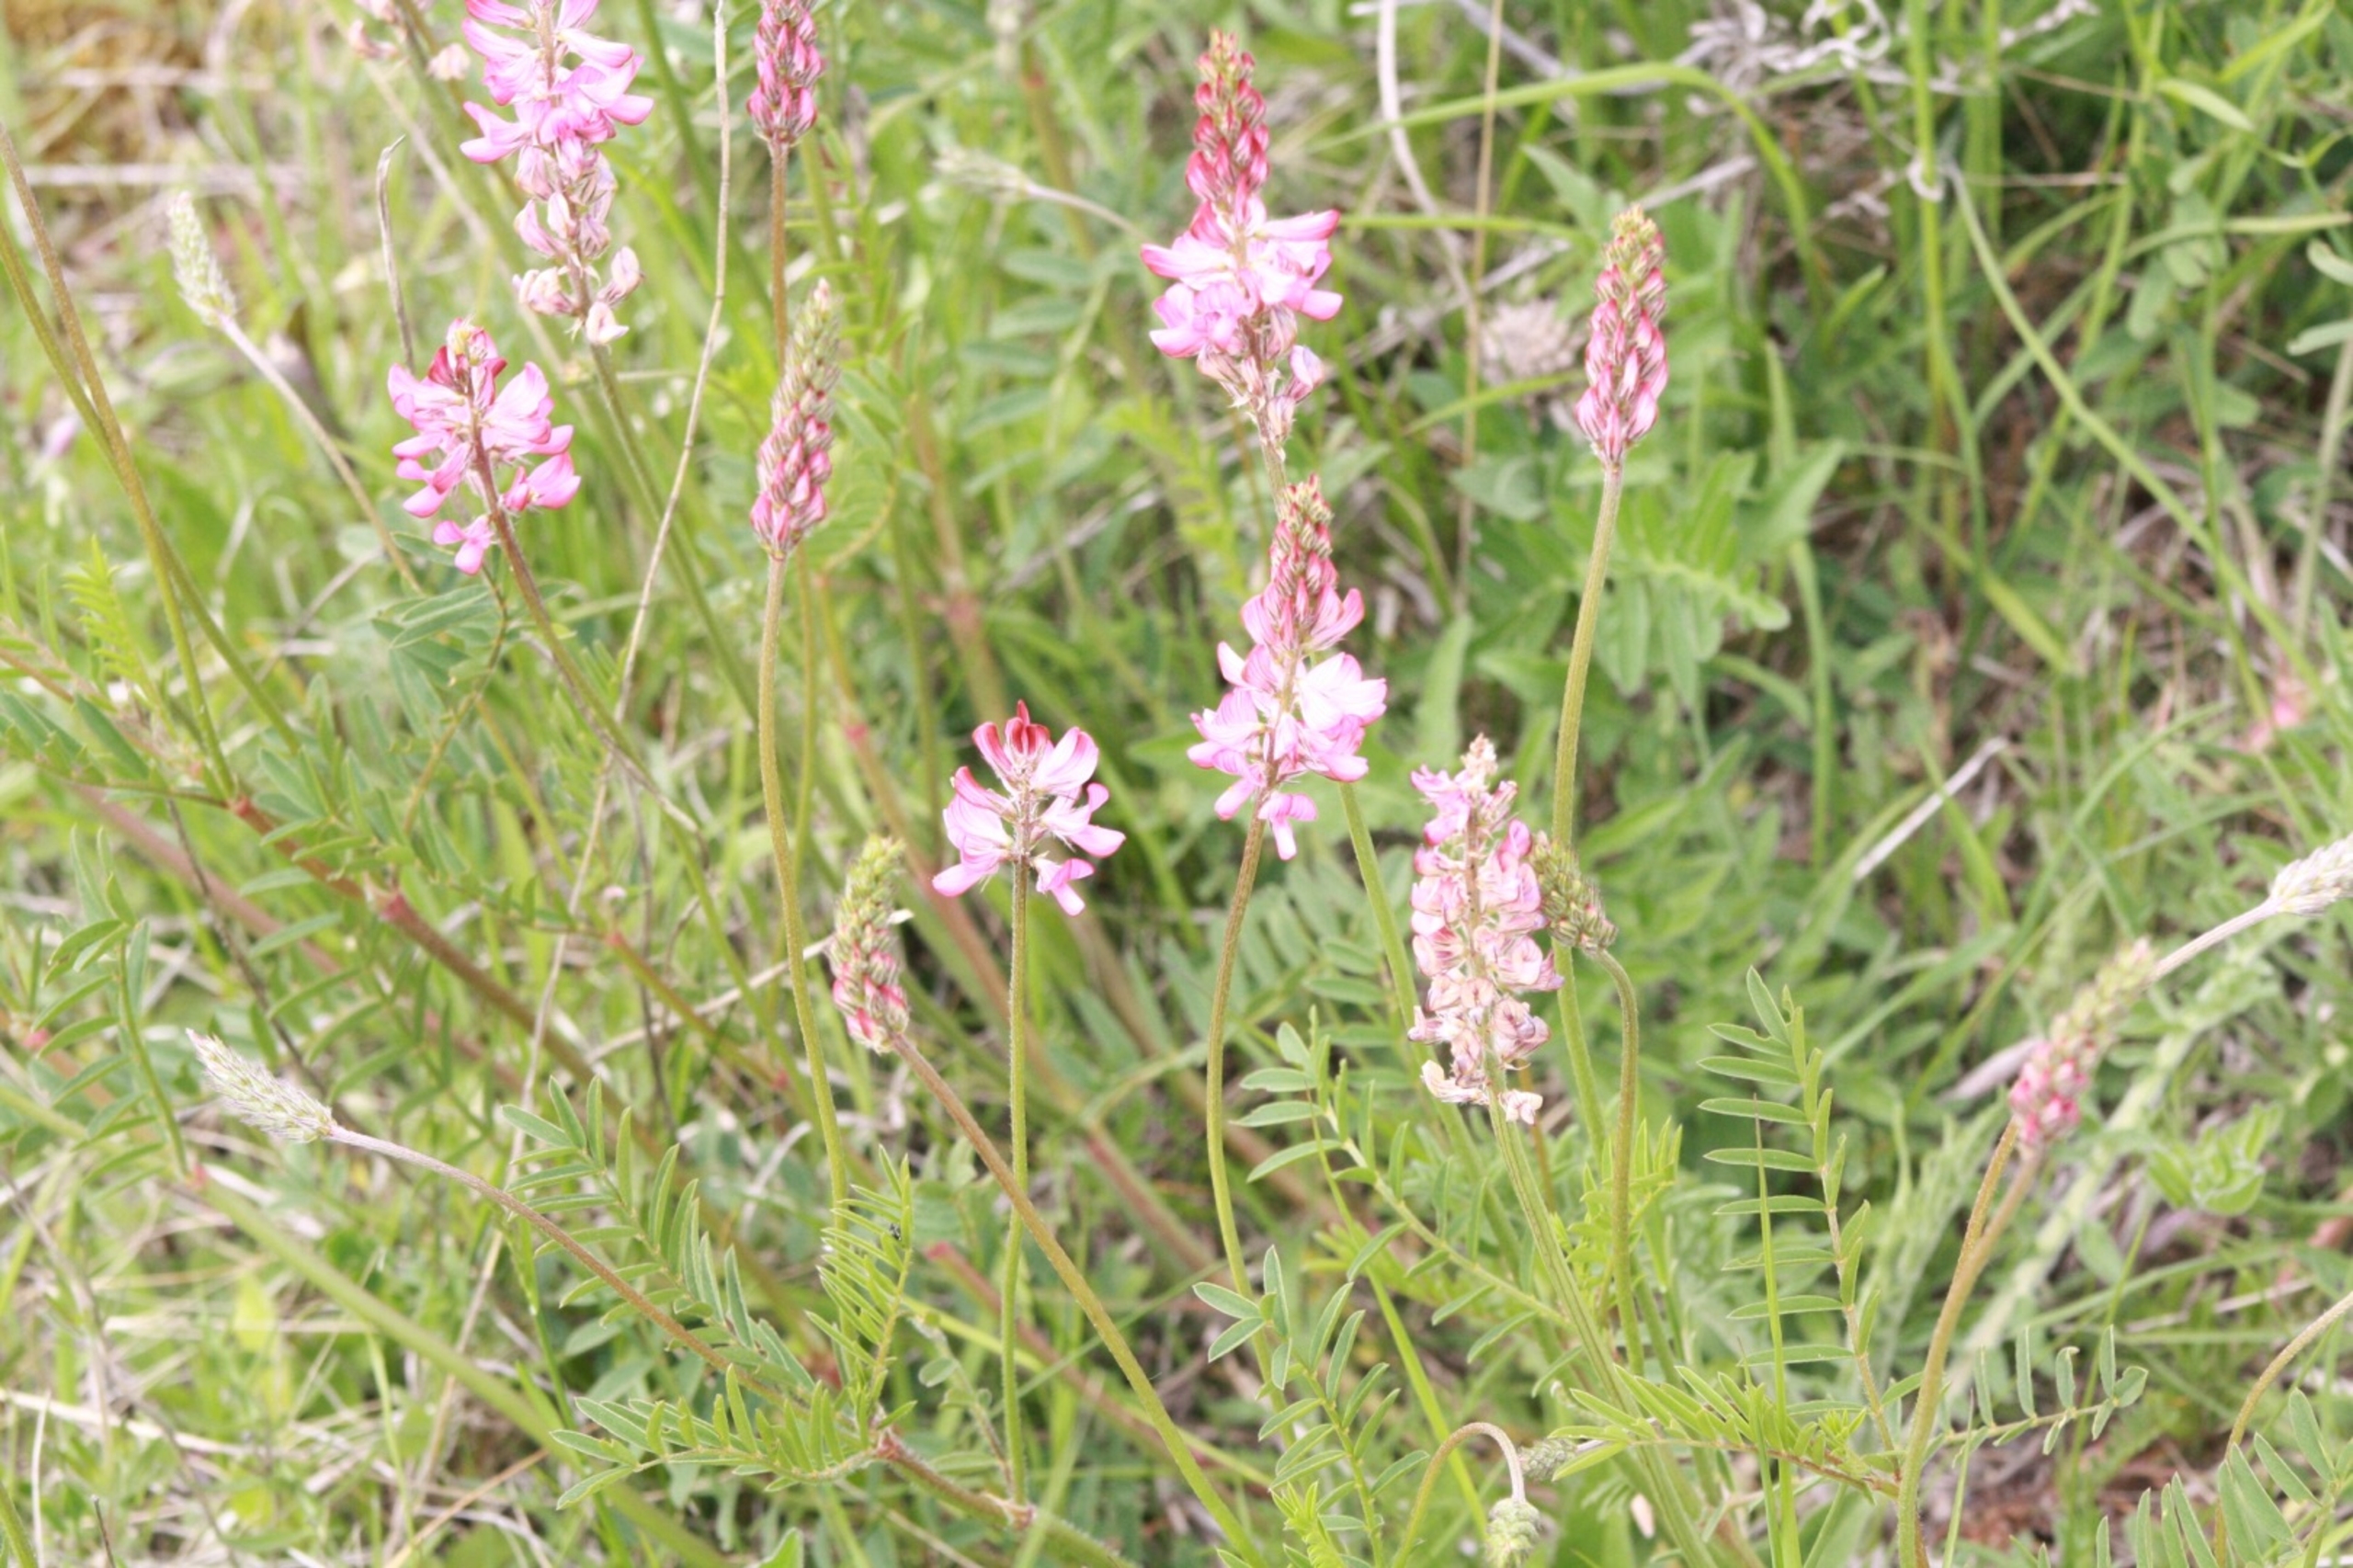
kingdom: Plantae
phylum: Tracheophyta
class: Magnoliopsida
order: Fabales
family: Fabaceae
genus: Onobrychis
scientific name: Onobrychis viciifolia
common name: Esparsette
